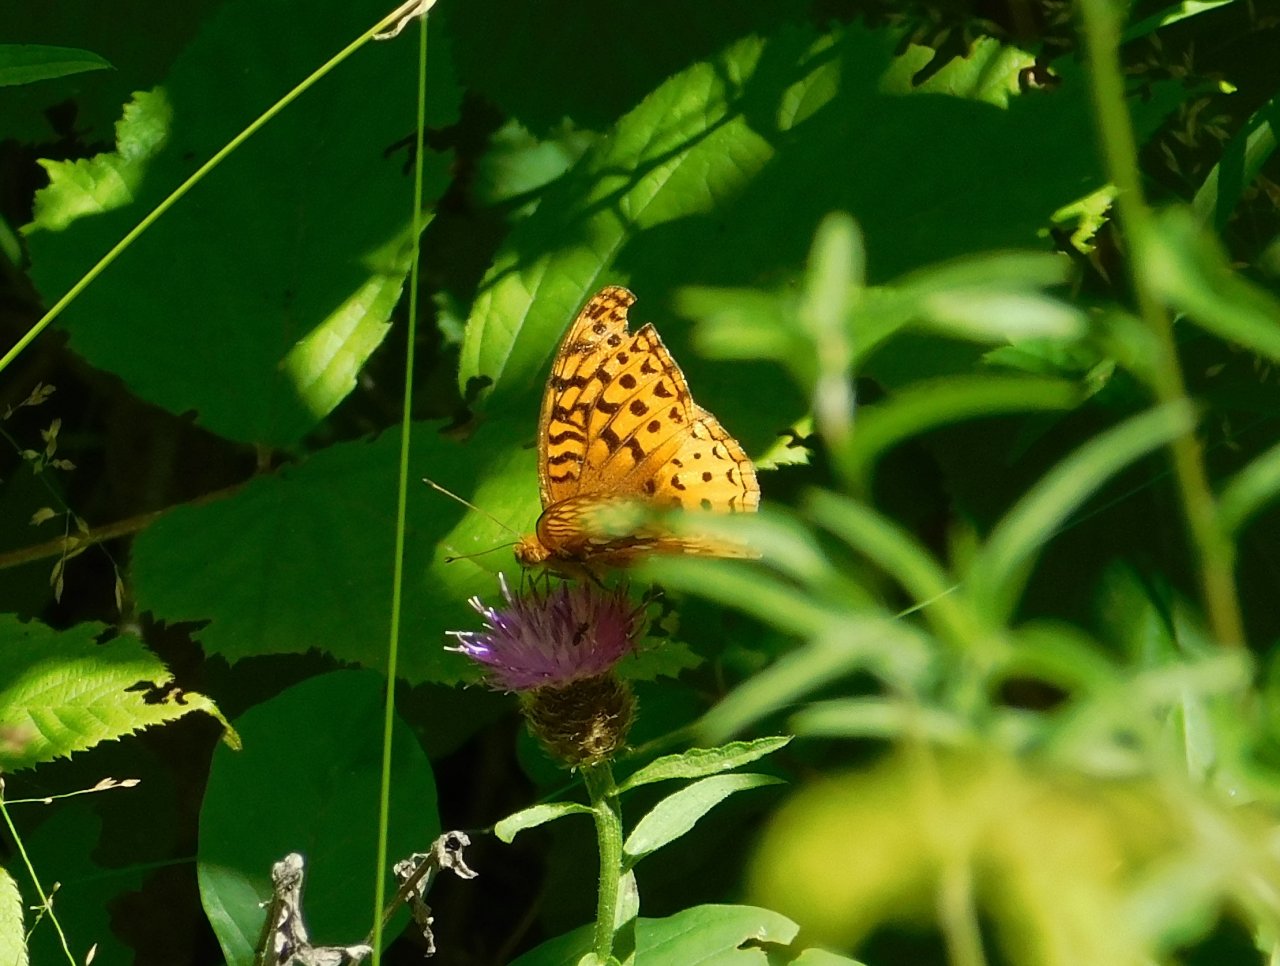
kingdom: Animalia
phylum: Arthropoda
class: Insecta
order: Lepidoptera
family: Nymphalidae
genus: Speyeria
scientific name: Speyeria cybele
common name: Great Spangled Fritillary
